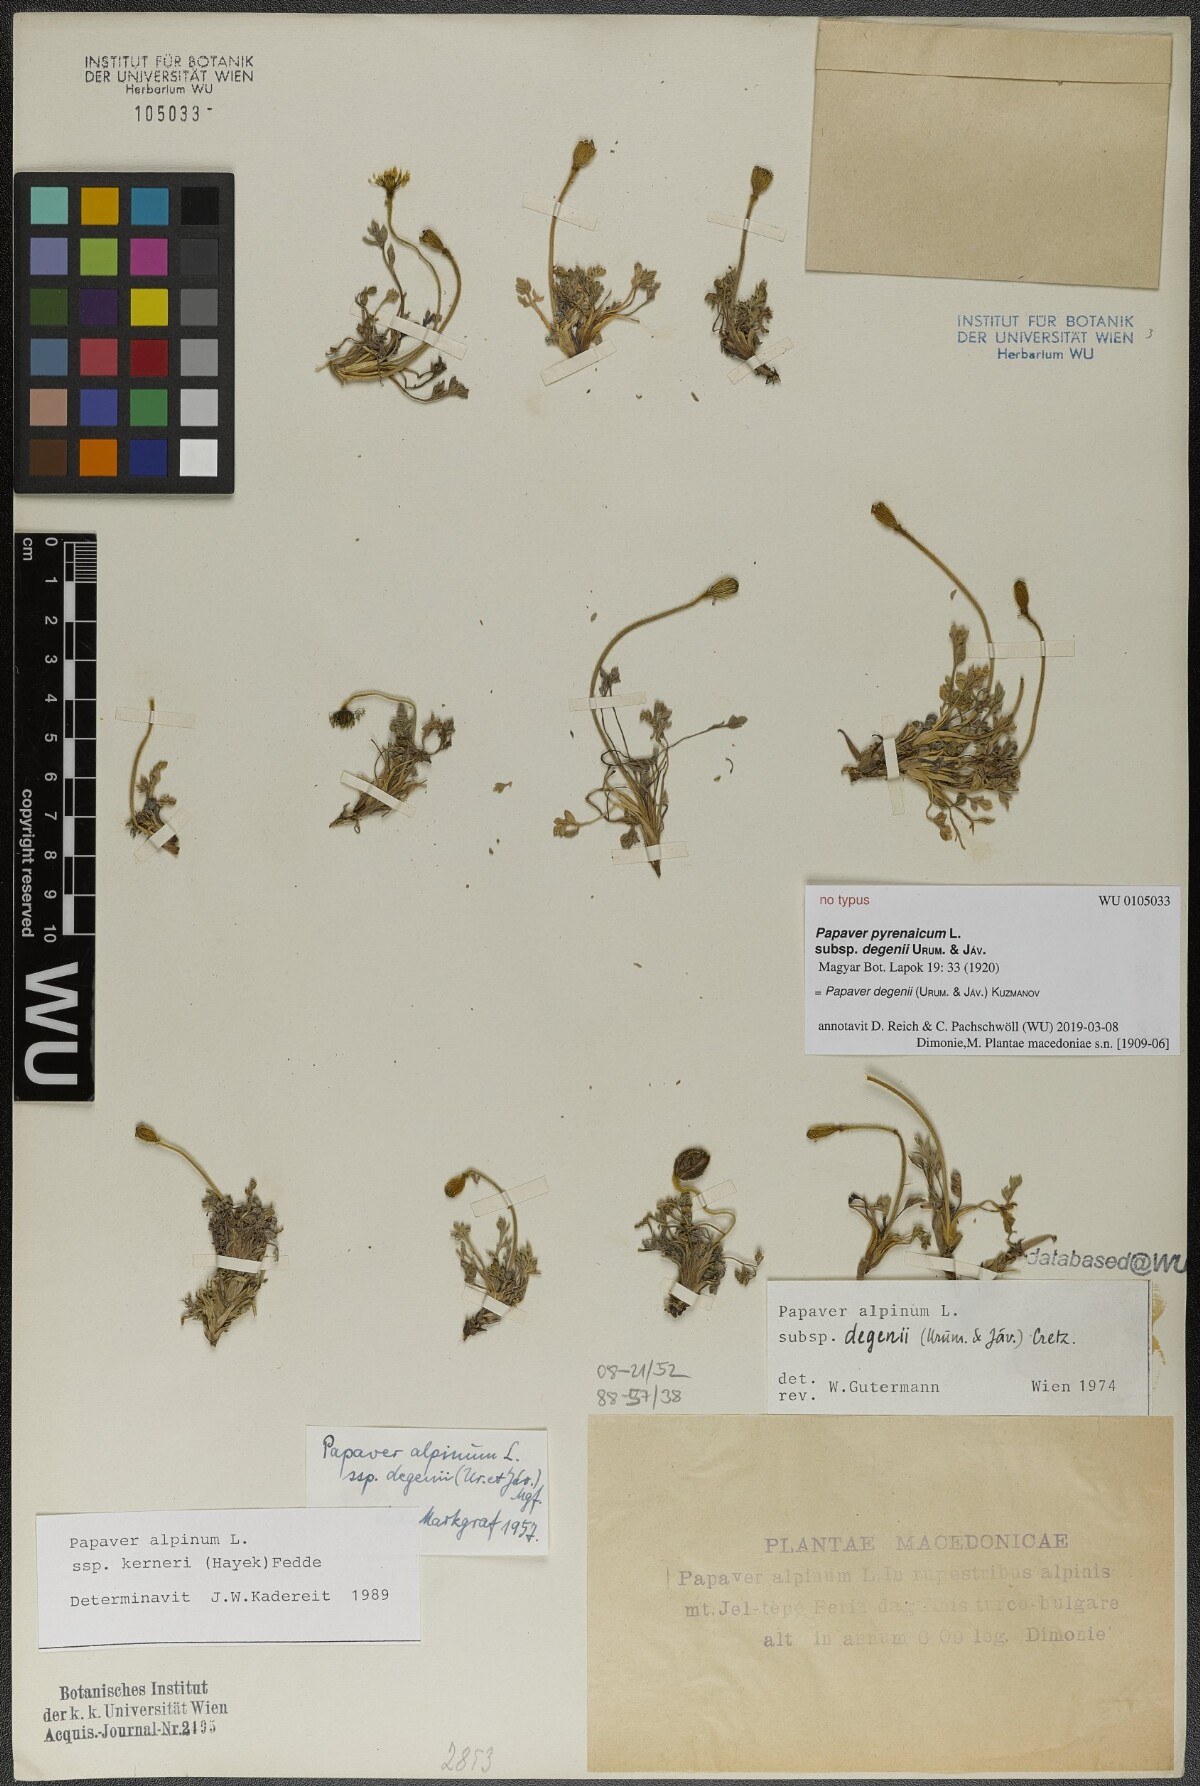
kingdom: Plantae
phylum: Tracheophyta
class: Magnoliopsida
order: Ranunculales
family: Papaveraceae
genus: Papaver
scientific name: Papaver alpinum
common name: Austrian poppy
